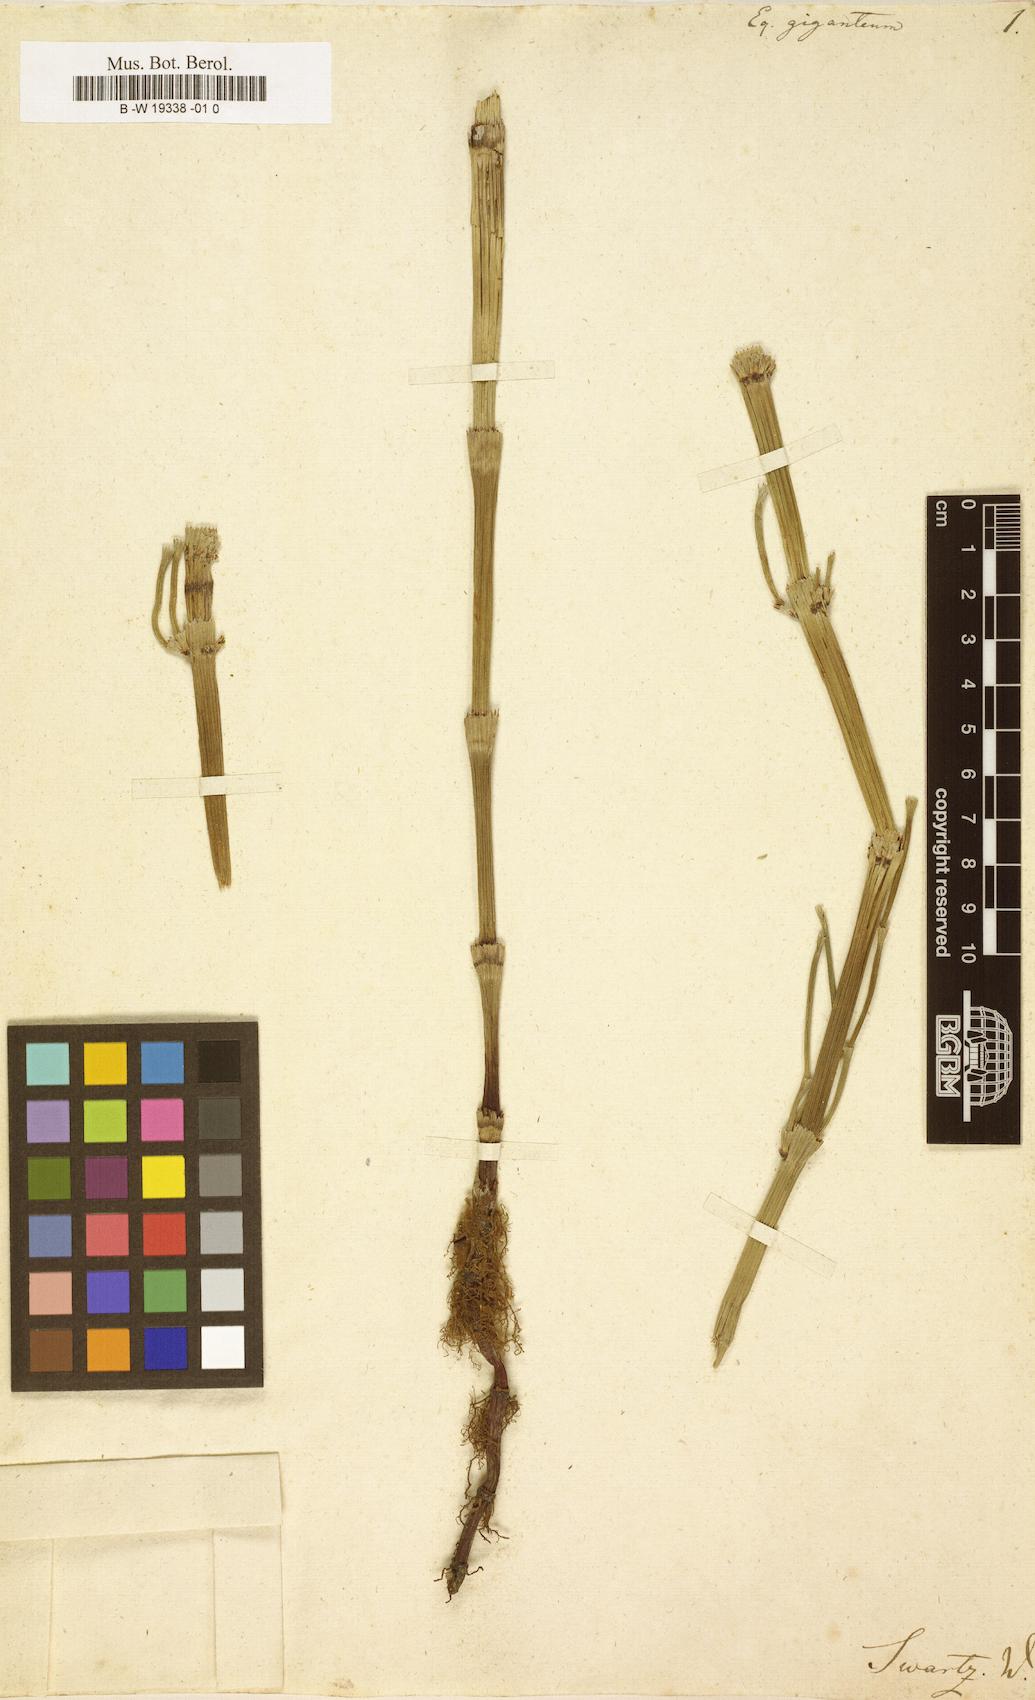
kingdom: Plantae
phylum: Tracheophyta
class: Polypodiopsida
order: Equisetales
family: Equisetaceae
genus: Equisetum
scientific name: Equisetum giganteum
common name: Giant horsetail
